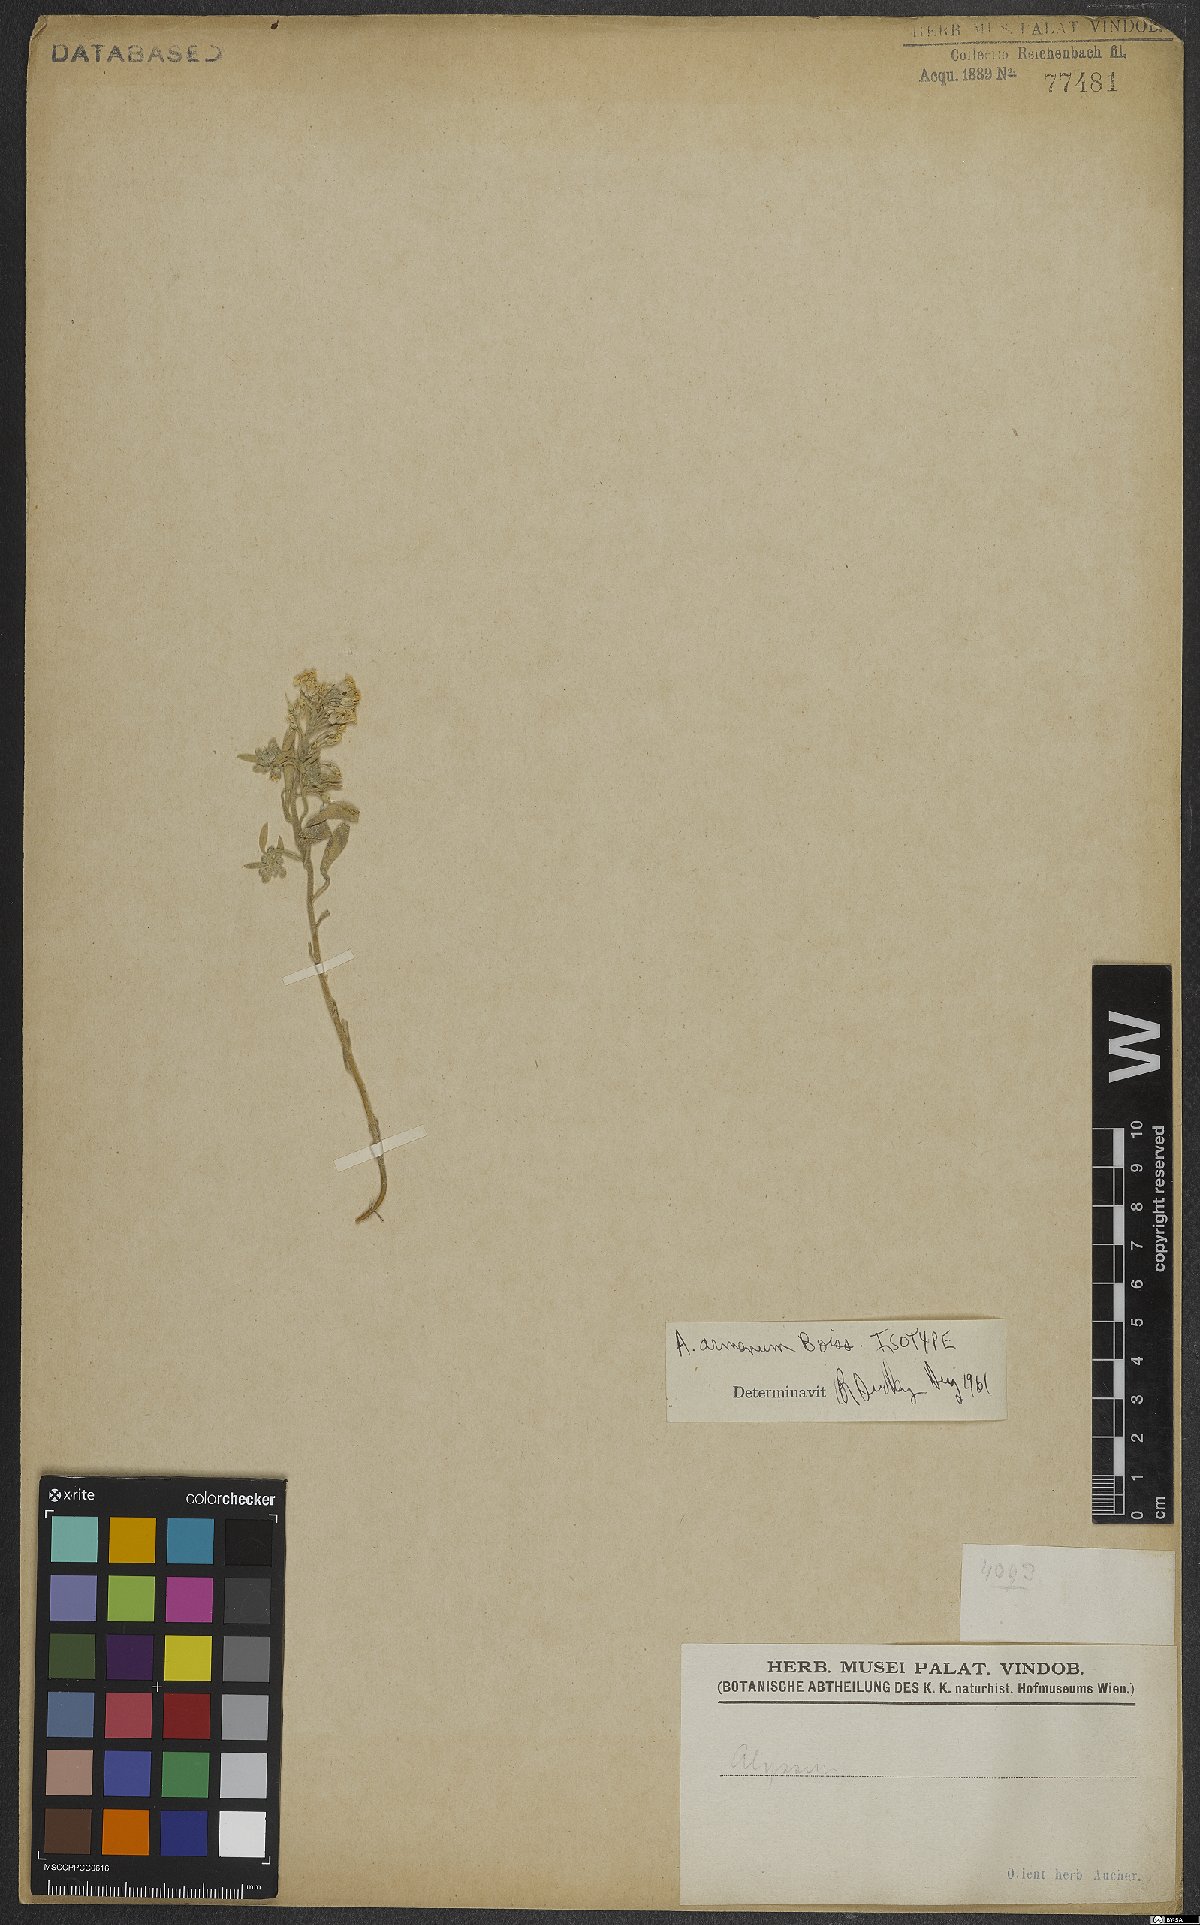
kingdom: Plantae
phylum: Tracheophyta
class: Magnoliopsida
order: Brassicales
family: Brassicaceae
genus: Alyssum
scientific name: Alyssum armenum
